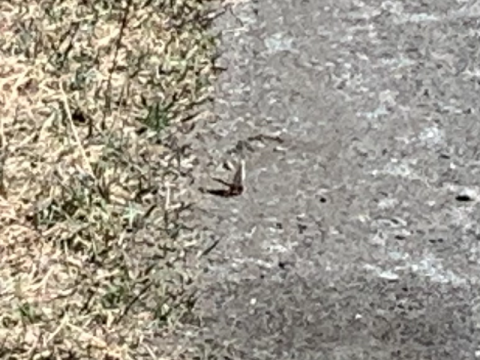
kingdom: Animalia
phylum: Arthropoda
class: Insecta
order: Lepidoptera
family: Nymphalidae
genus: Nymphalis
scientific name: Nymphalis antiopa
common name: Mourning Cloak
